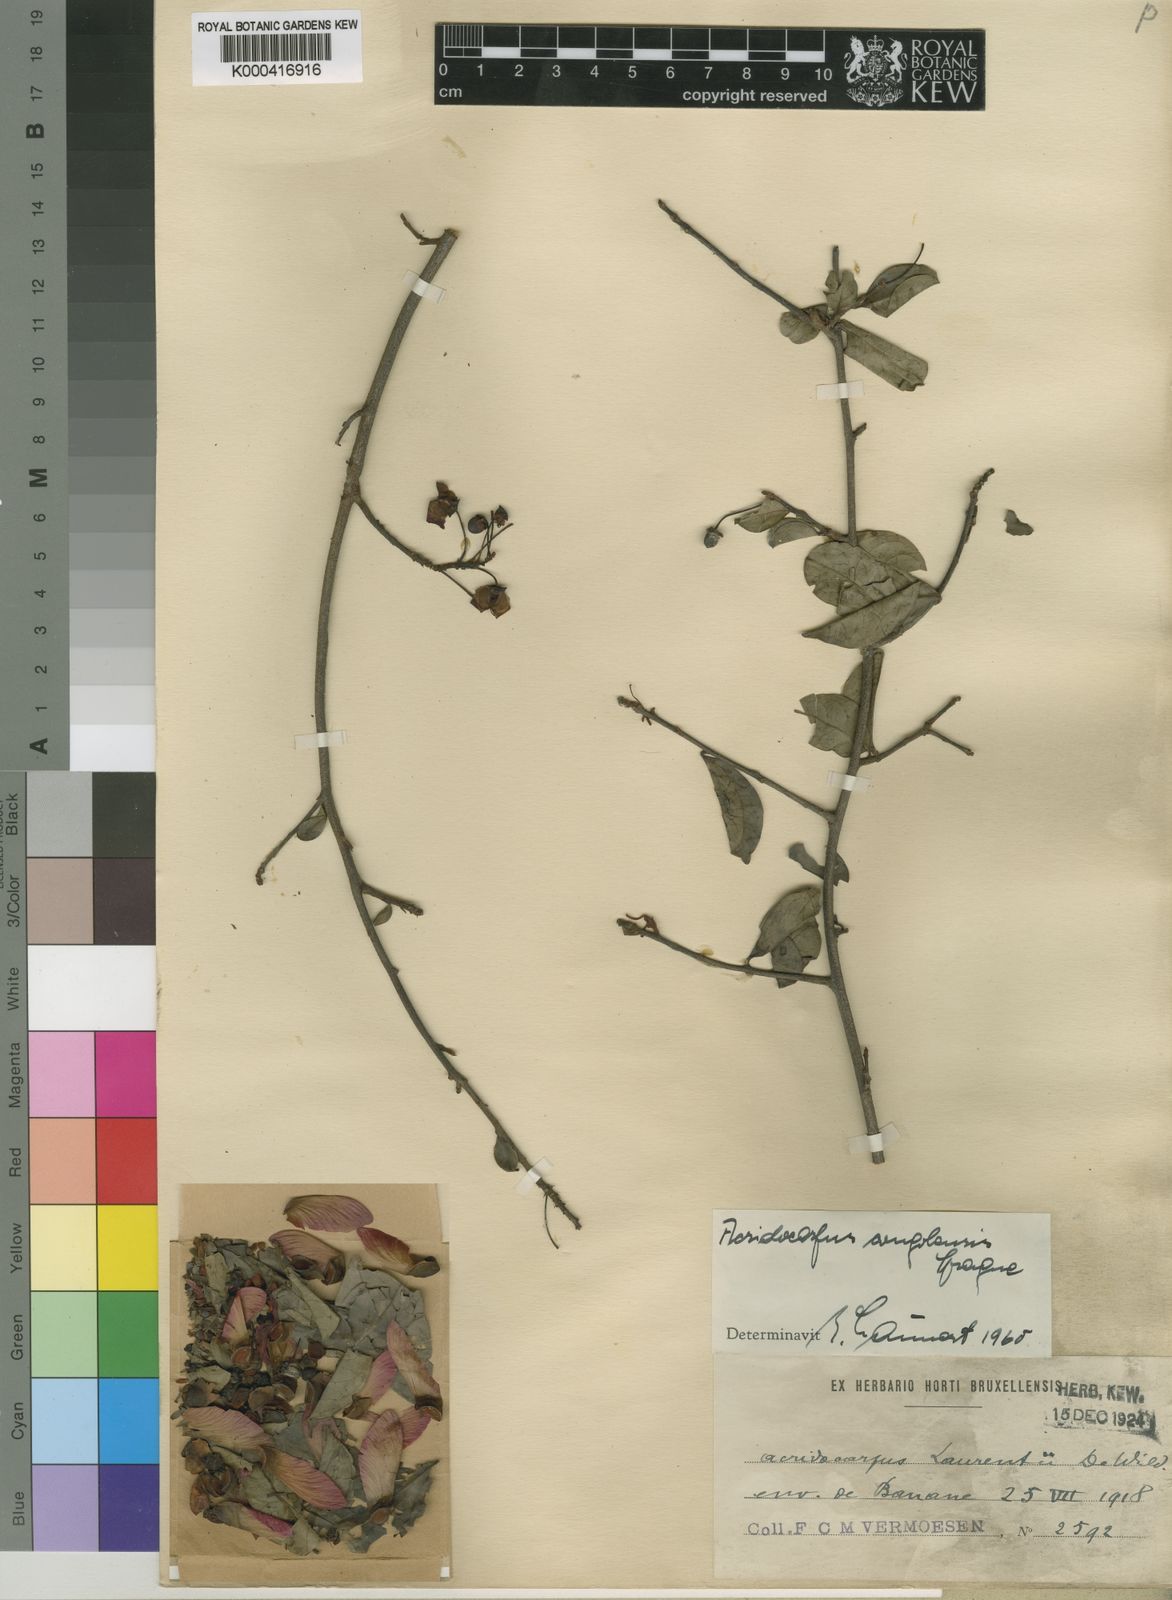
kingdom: Plantae
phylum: Tracheophyta
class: Magnoliopsida
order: Malpighiales
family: Malpighiaceae
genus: Acridocarpus
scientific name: Acridocarpus congolensis
